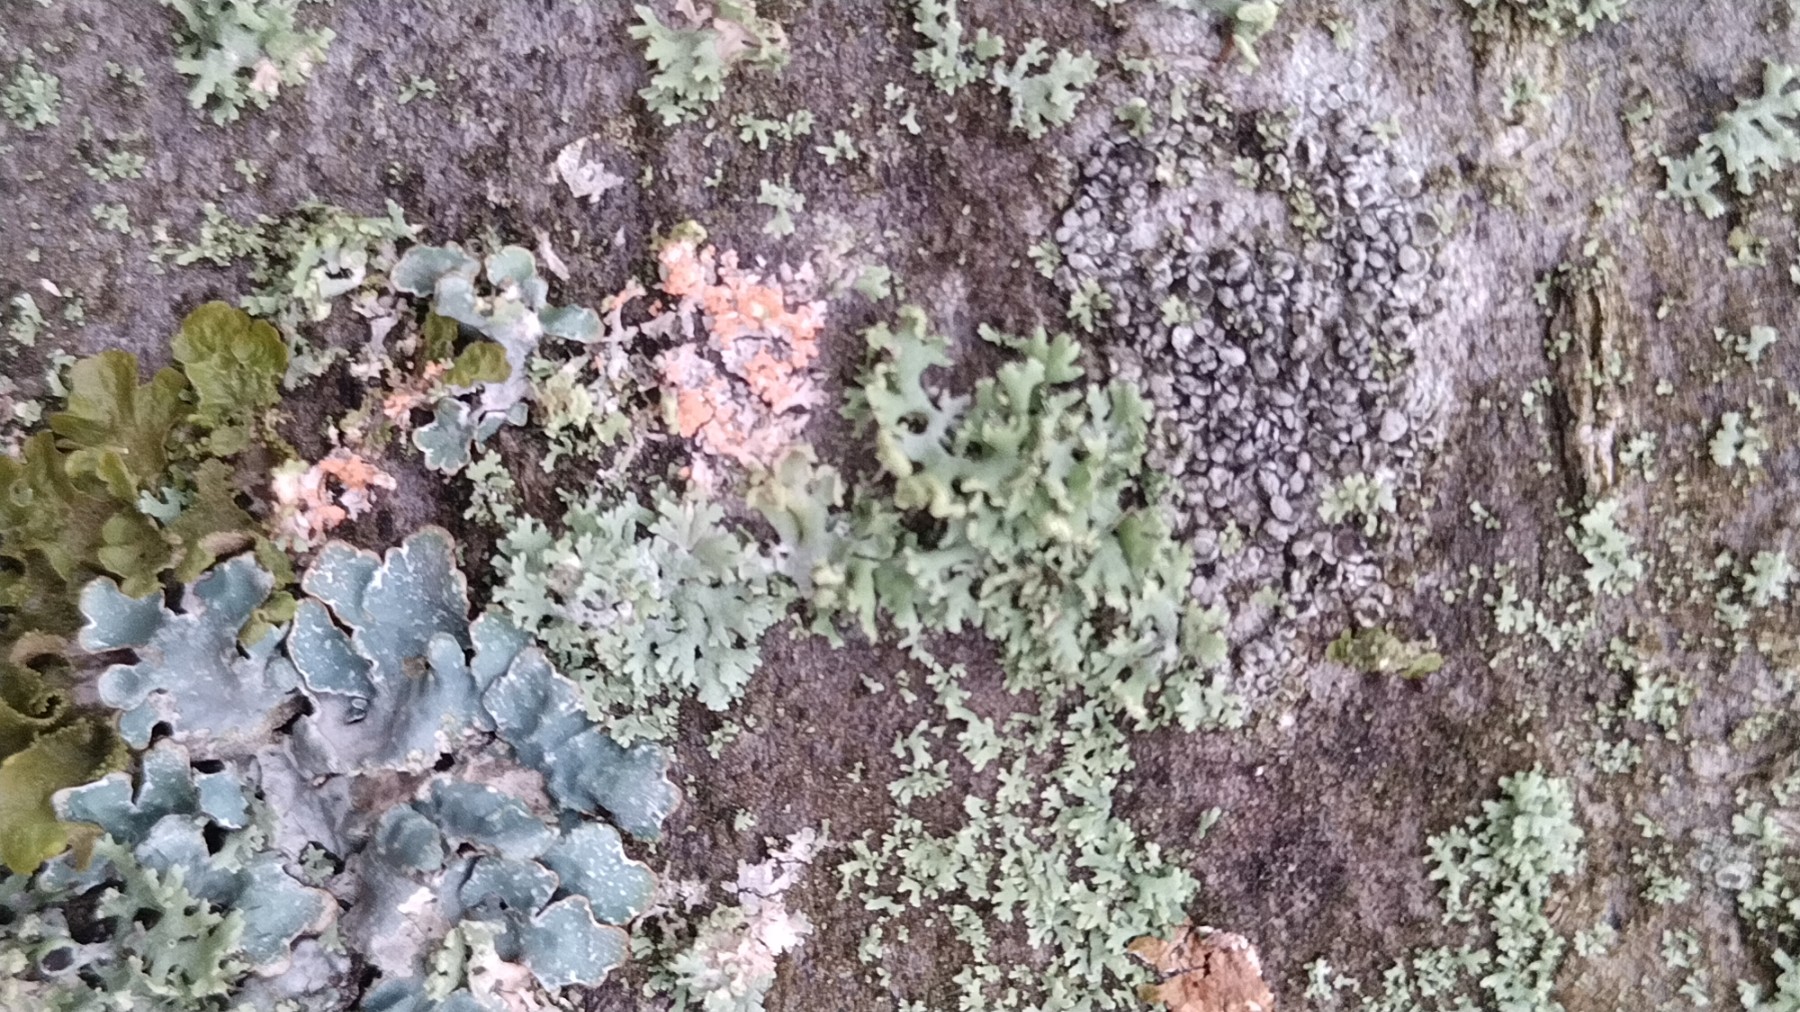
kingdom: Fungi
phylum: Basidiomycota
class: Agaricomycetes
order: Corticiales
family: Corticiaceae
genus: Erythricium
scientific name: Erythricium aurantiacum
